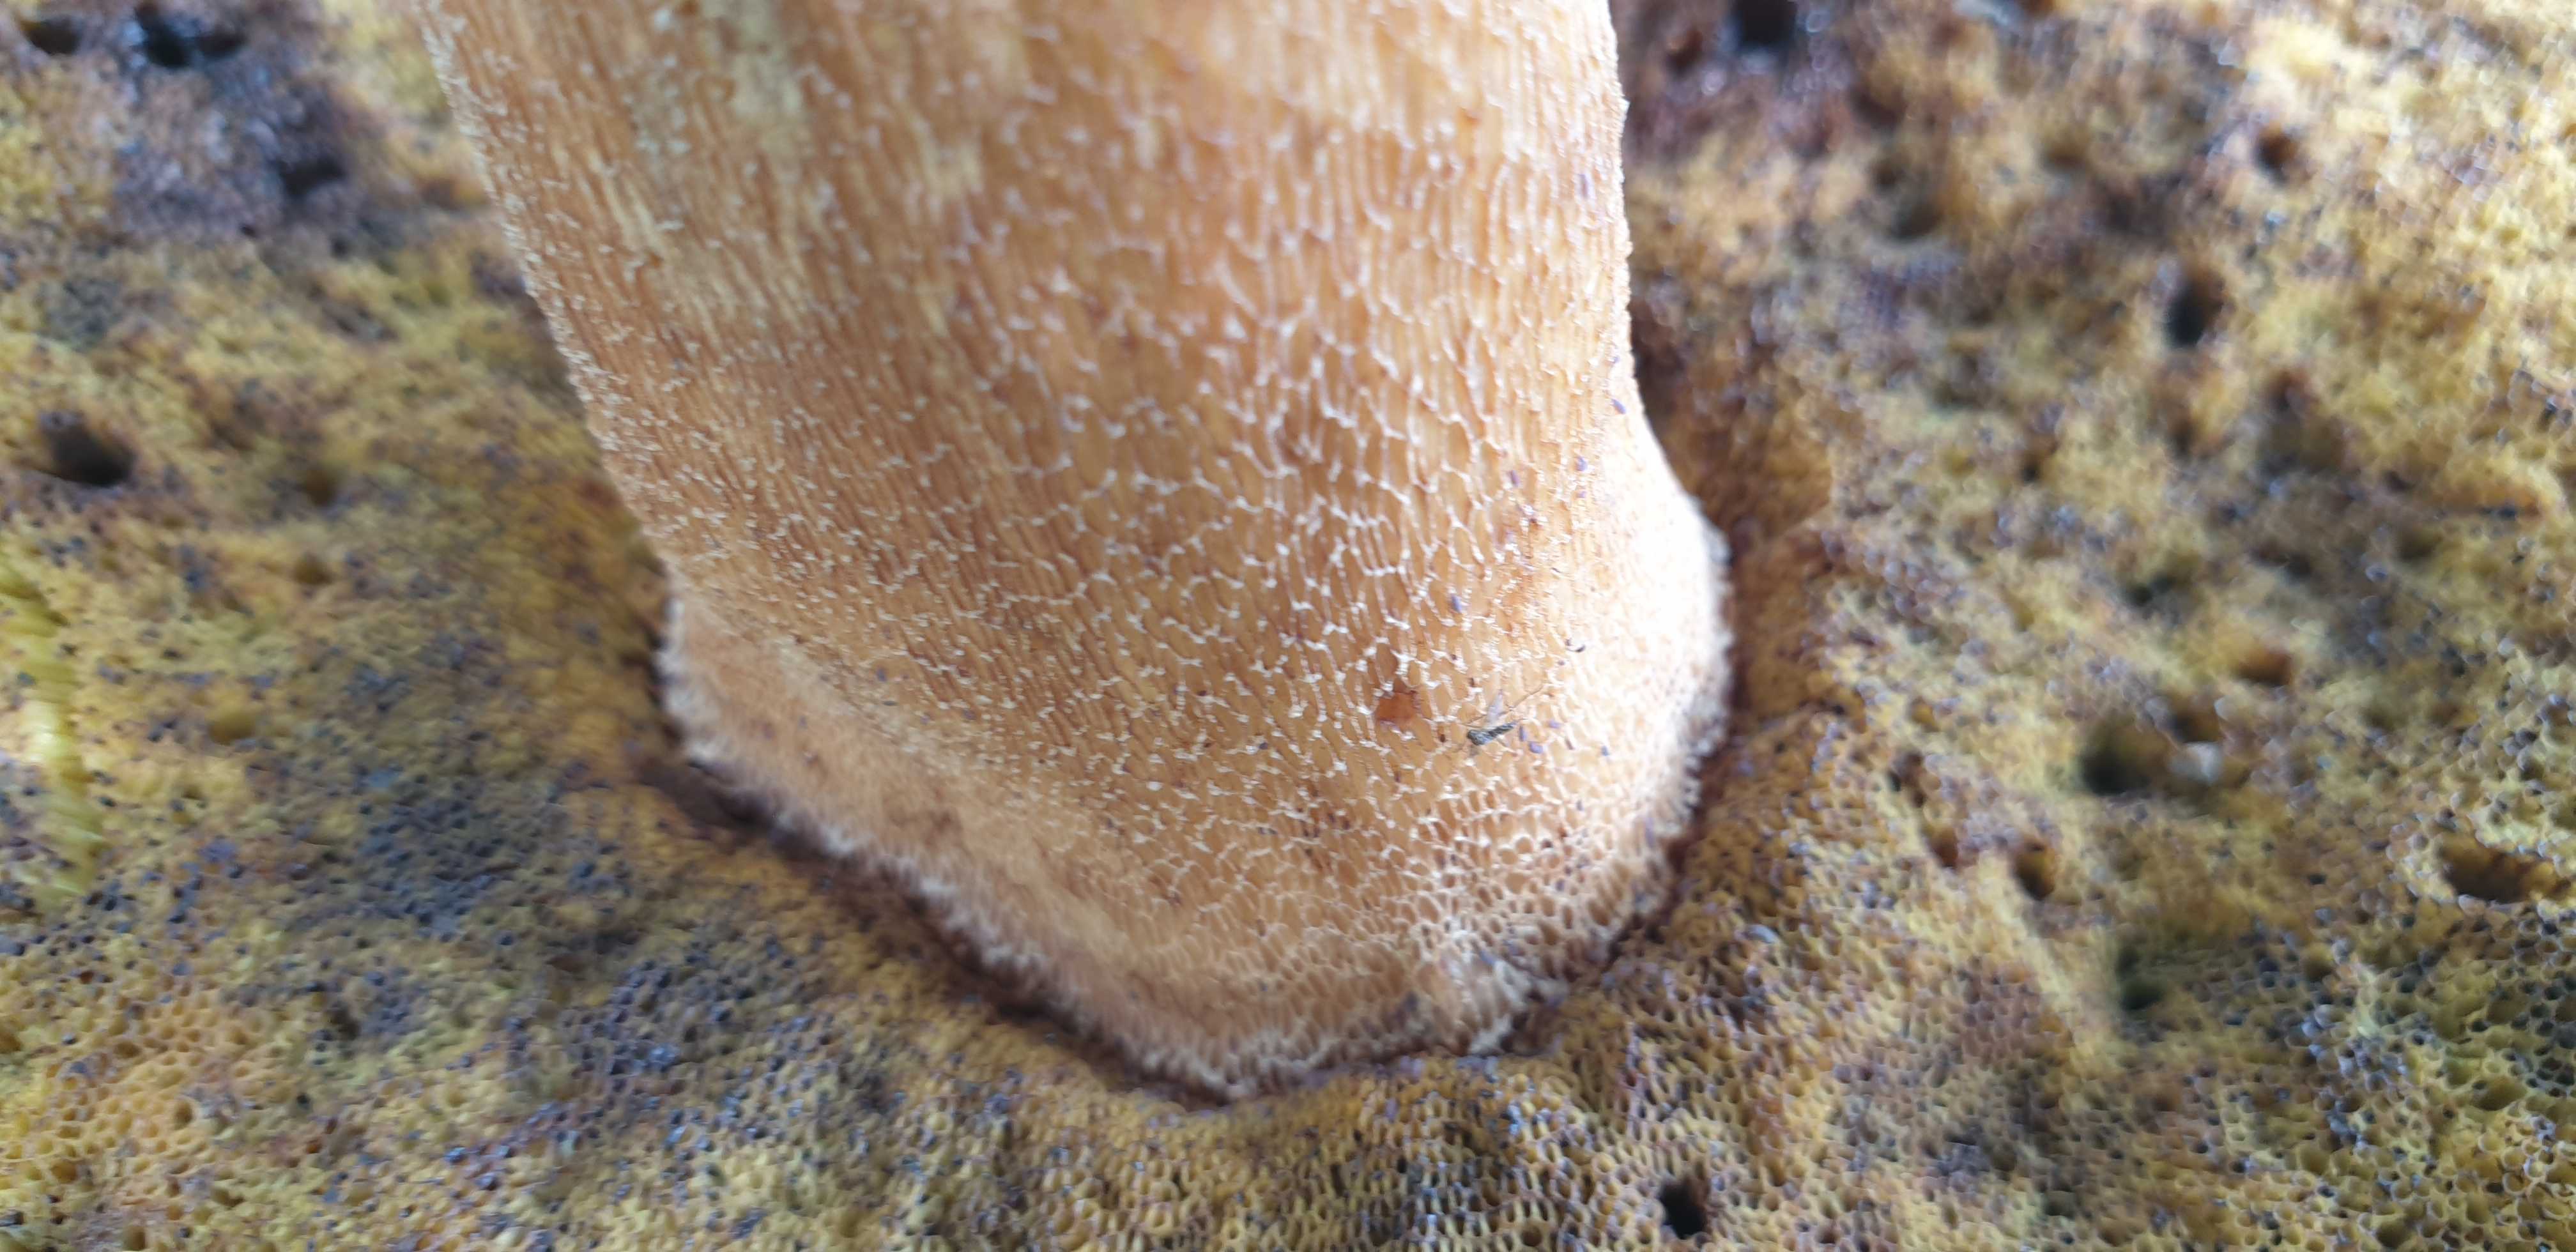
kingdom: Fungi
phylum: Basidiomycota
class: Agaricomycetes
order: Boletales
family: Boletaceae
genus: Boletus
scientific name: Boletus edulis
